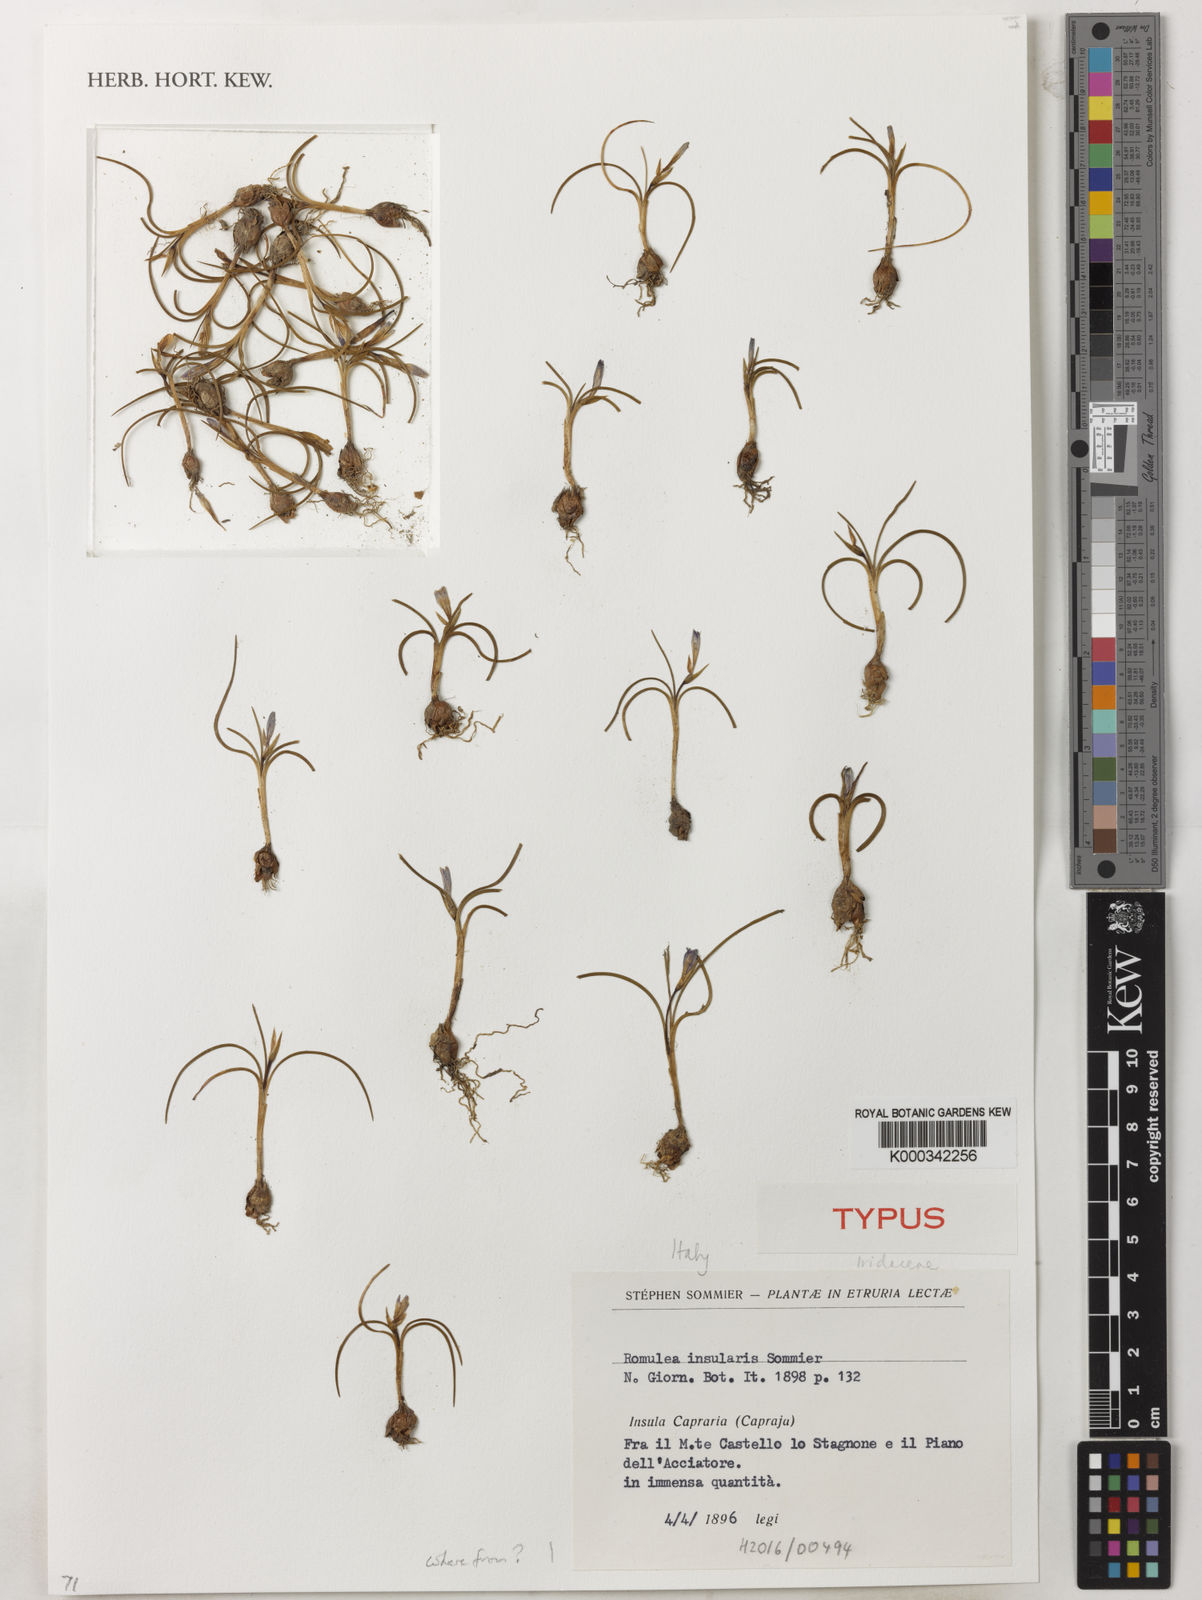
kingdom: Plantae
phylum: Tracheophyta
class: Liliopsida
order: Asparagales
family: Iridaceae
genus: Romulea
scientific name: Romulea insularis
